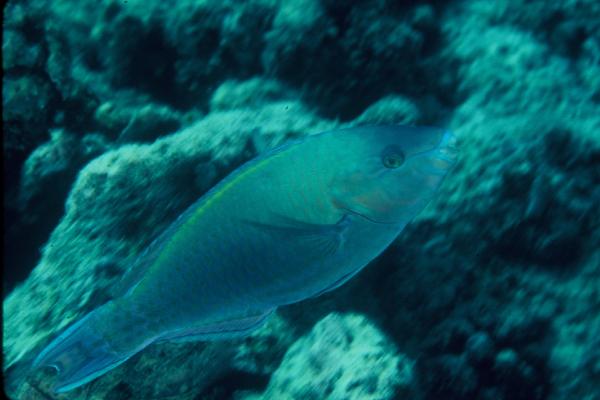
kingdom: Animalia
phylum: Chordata
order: Perciformes
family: Scaridae
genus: Scarus
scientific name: Scarus psittacus
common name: Palenose parrotfish
